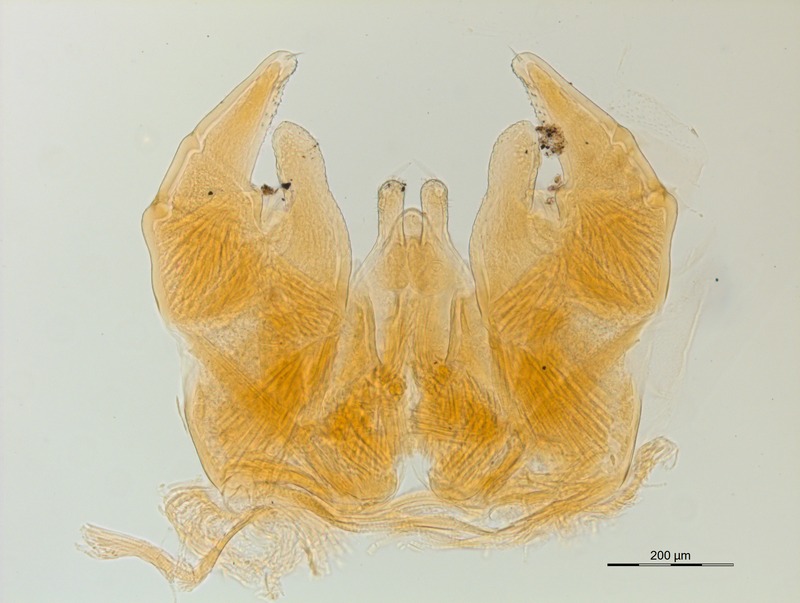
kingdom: Animalia
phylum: Arthropoda
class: Diplopoda
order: Glomerida
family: Protoglomeridae
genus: Glomerellina
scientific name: Glomerellina convolvens
